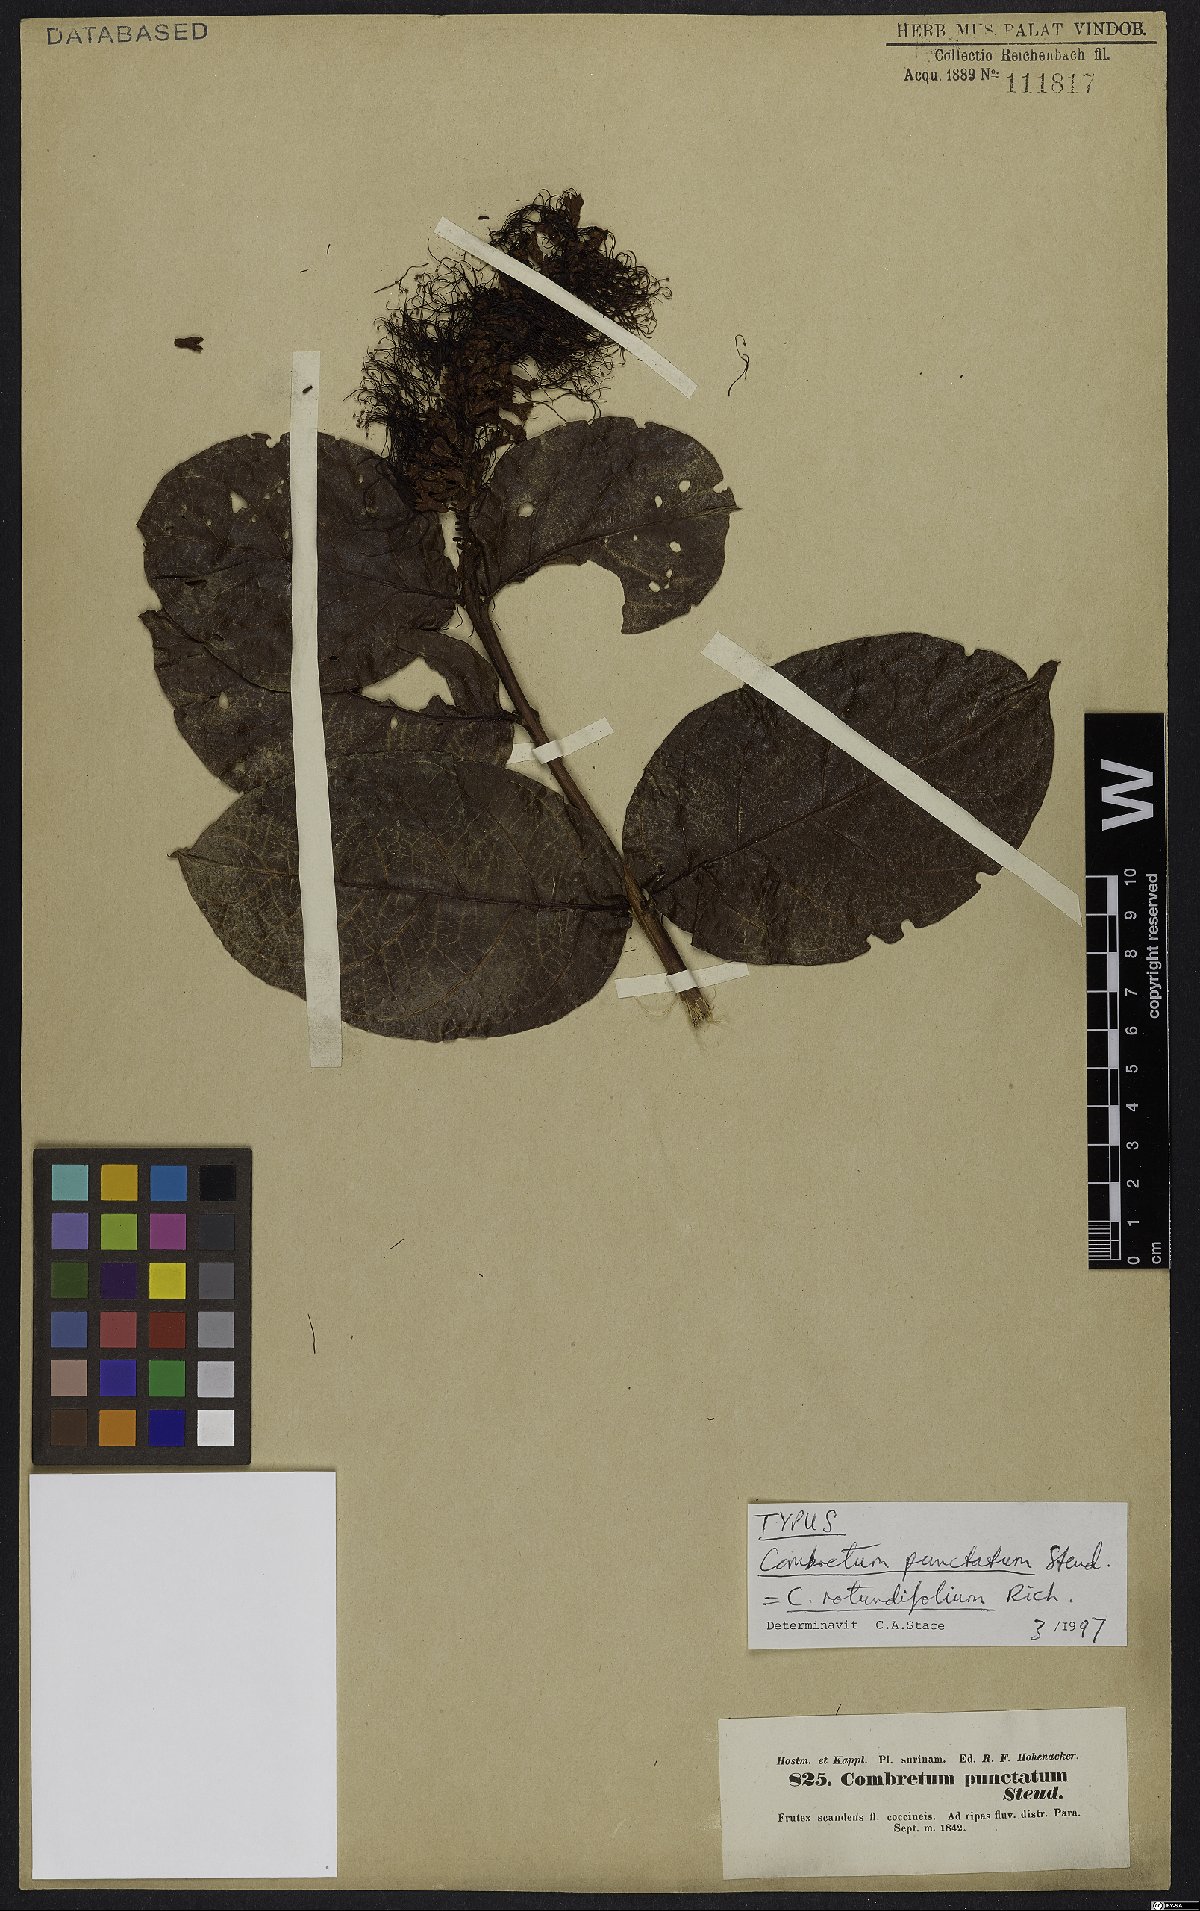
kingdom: Plantae
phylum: Tracheophyta
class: Magnoliopsida
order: Myrtales
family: Combretaceae
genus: Combretum
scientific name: Combretum rotundifolium
